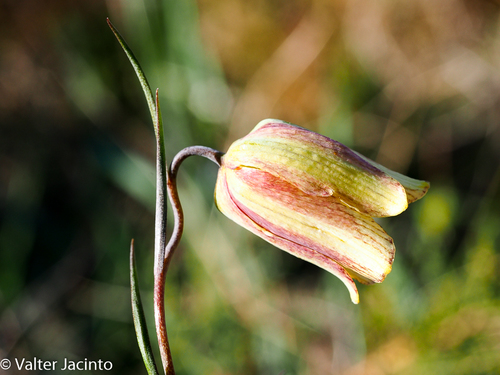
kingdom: Plantae
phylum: Tracheophyta
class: Liliopsida
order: Liliales
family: Liliaceae
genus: Fritillaria
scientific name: Fritillaria lusitanica
